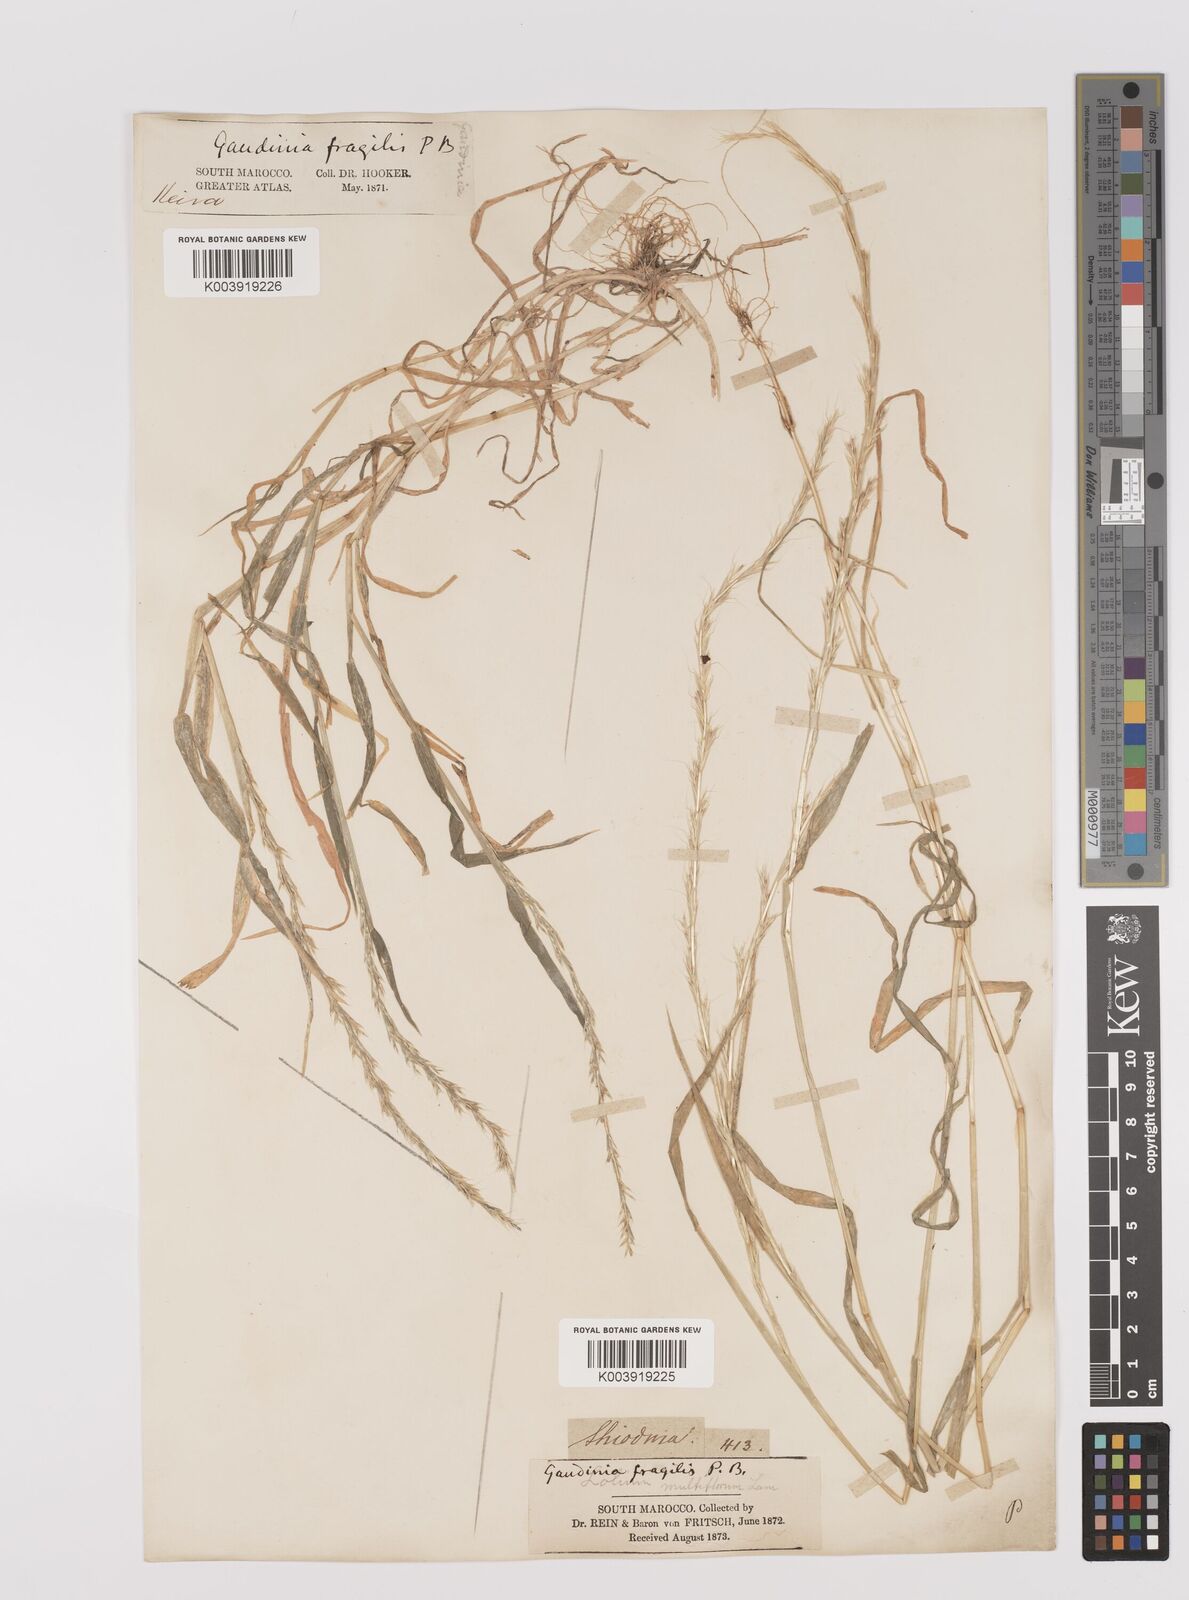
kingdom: Plantae
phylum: Tracheophyta
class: Liliopsida
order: Poales
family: Poaceae
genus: Gaudinia
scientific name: Gaudinia fragilis
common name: French oat-grass
